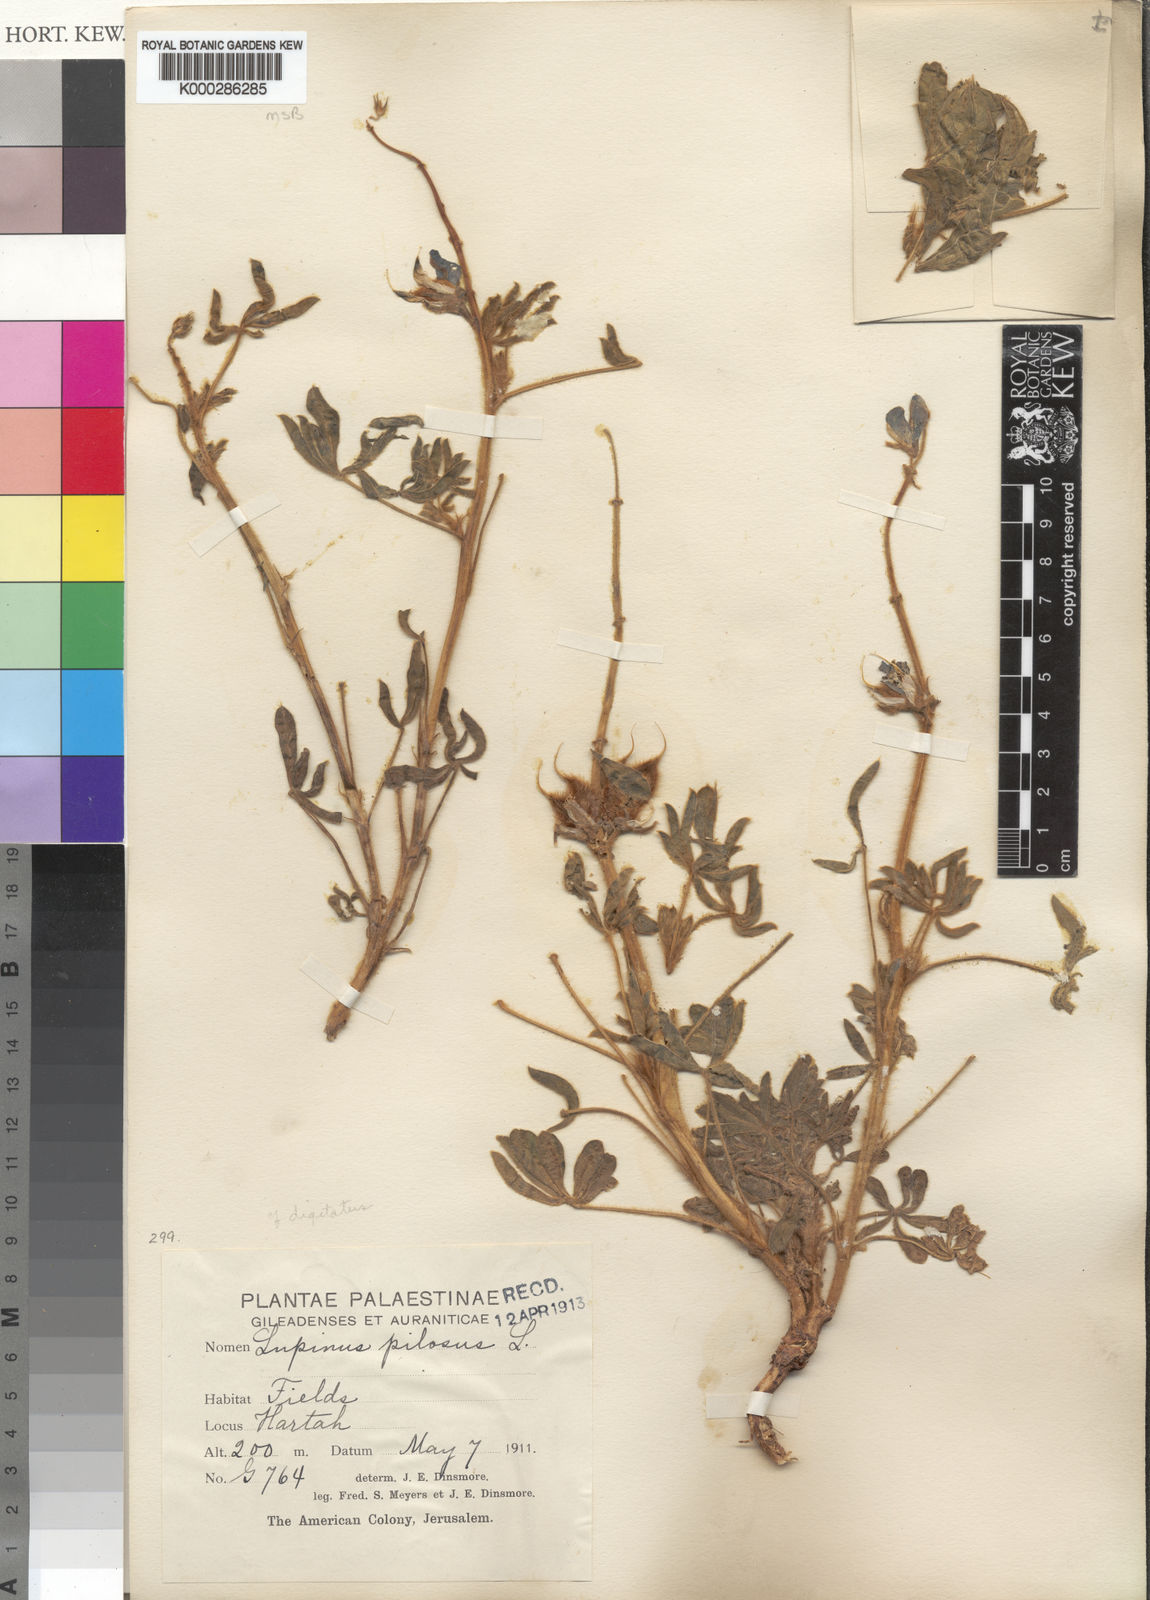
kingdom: Plantae
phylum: Tracheophyta
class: Magnoliopsida
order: Fabales
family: Fabaceae
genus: Lupinus
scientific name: Lupinus
